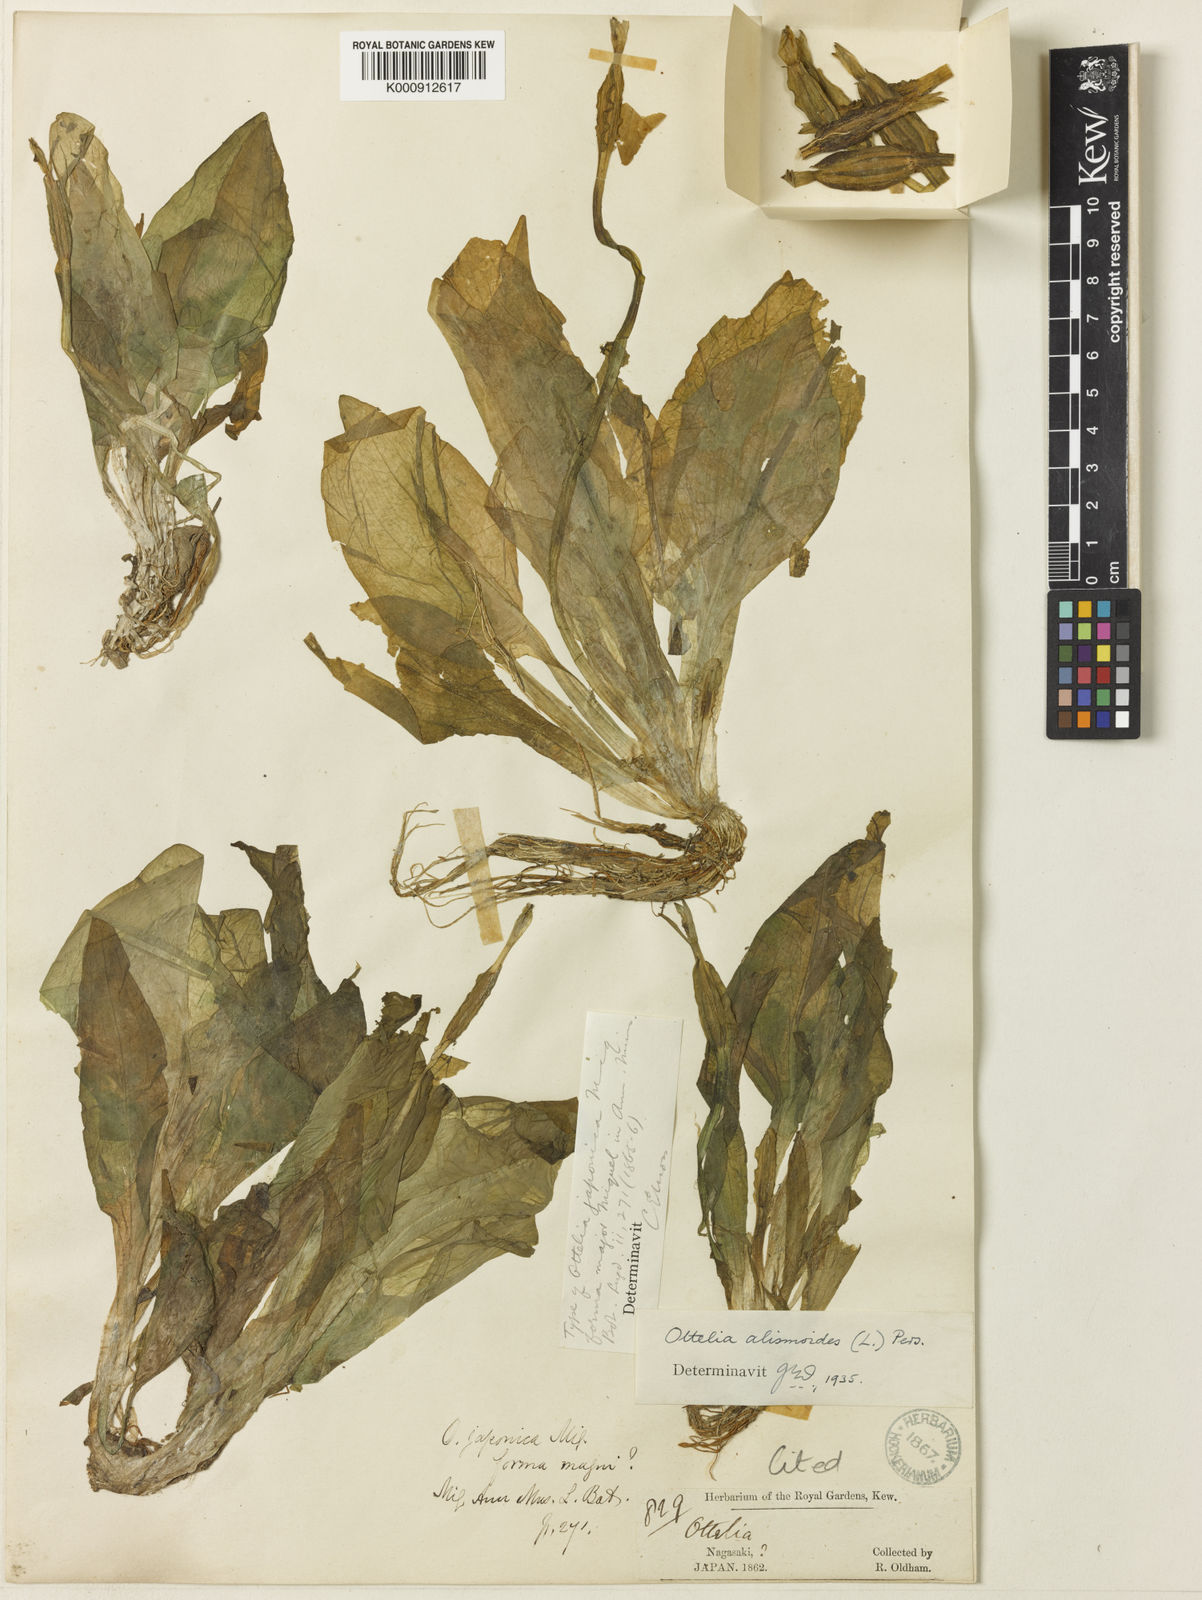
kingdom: Plantae
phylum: Tracheophyta
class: Liliopsida
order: Alismatales
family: Hydrocharitaceae
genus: Ottelia
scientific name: Ottelia alismoides
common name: Duck-lettuce
